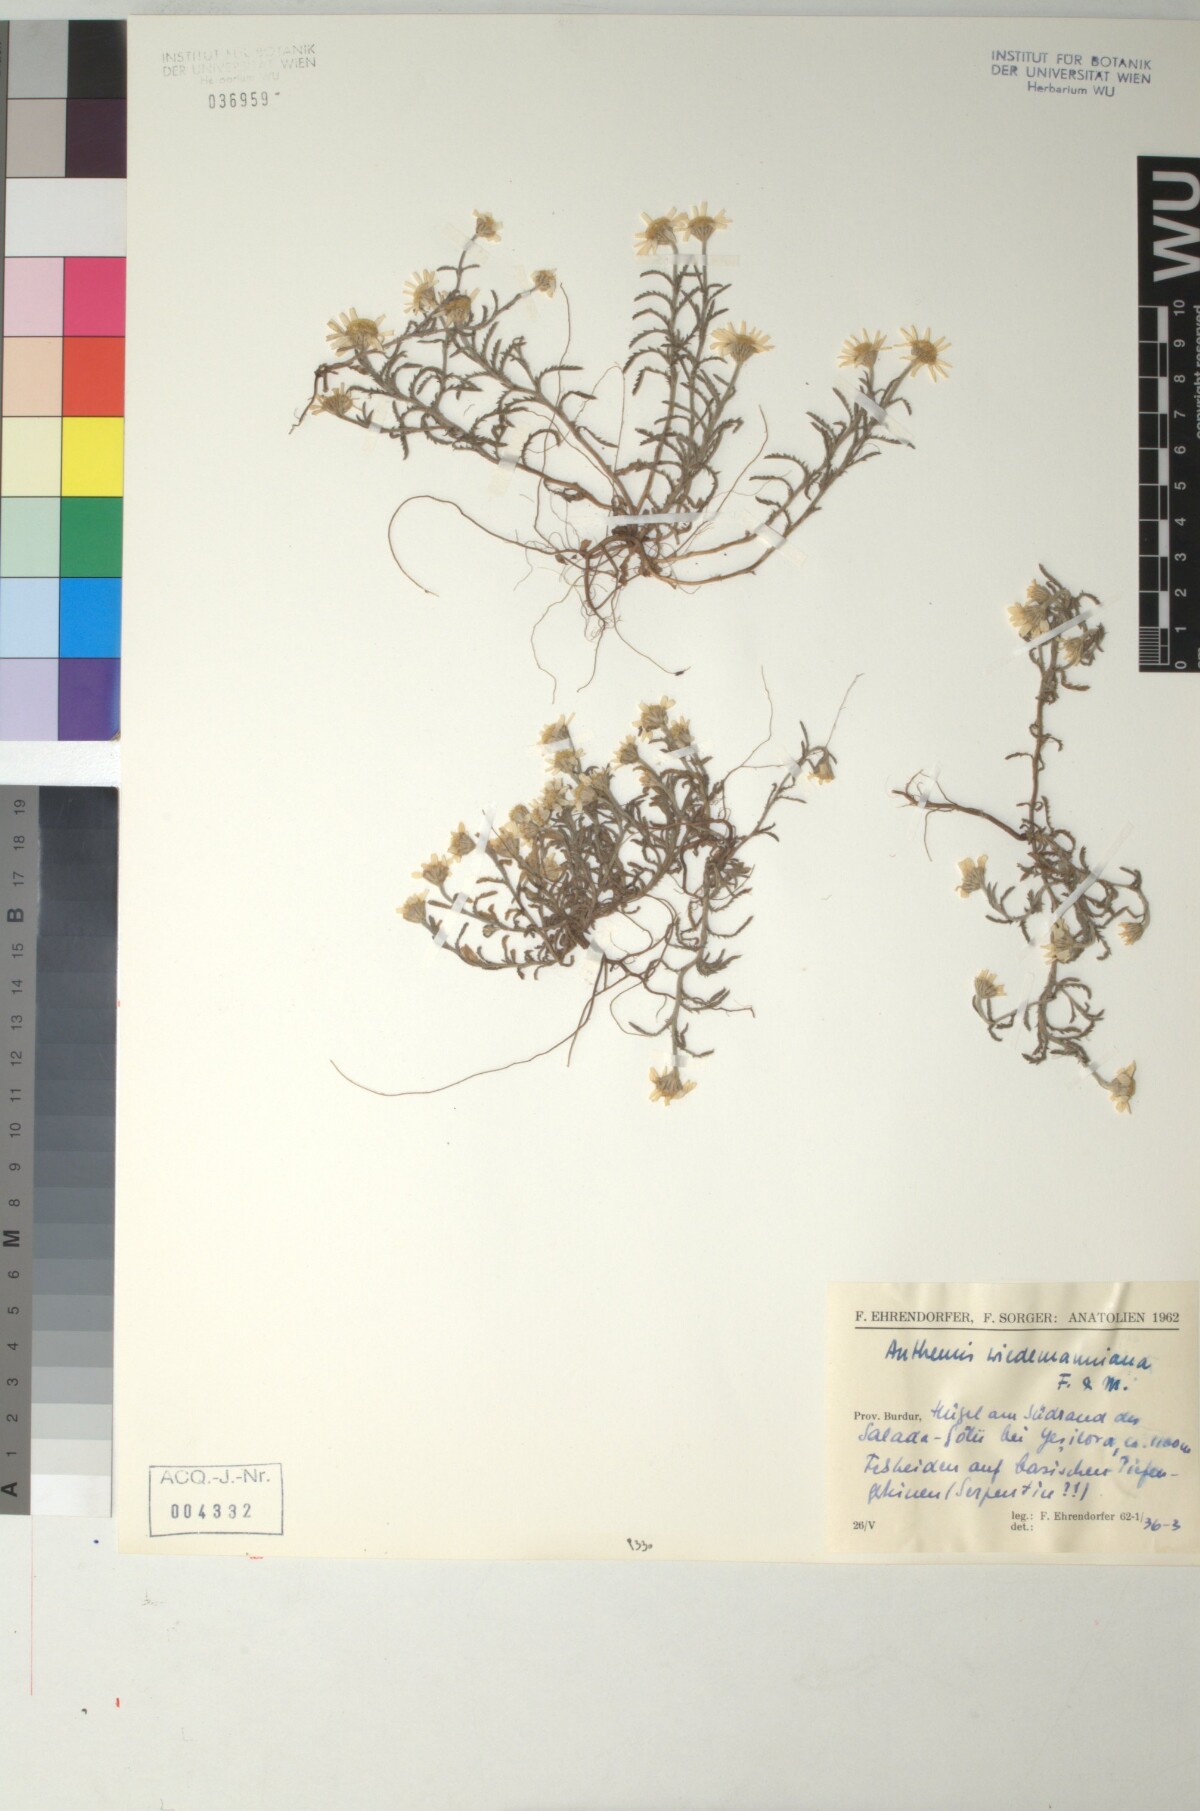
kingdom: Plantae
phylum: Tracheophyta
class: Magnoliopsida
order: Asterales
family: Asteraceae
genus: Cota
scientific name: Cota wiedemanniana
